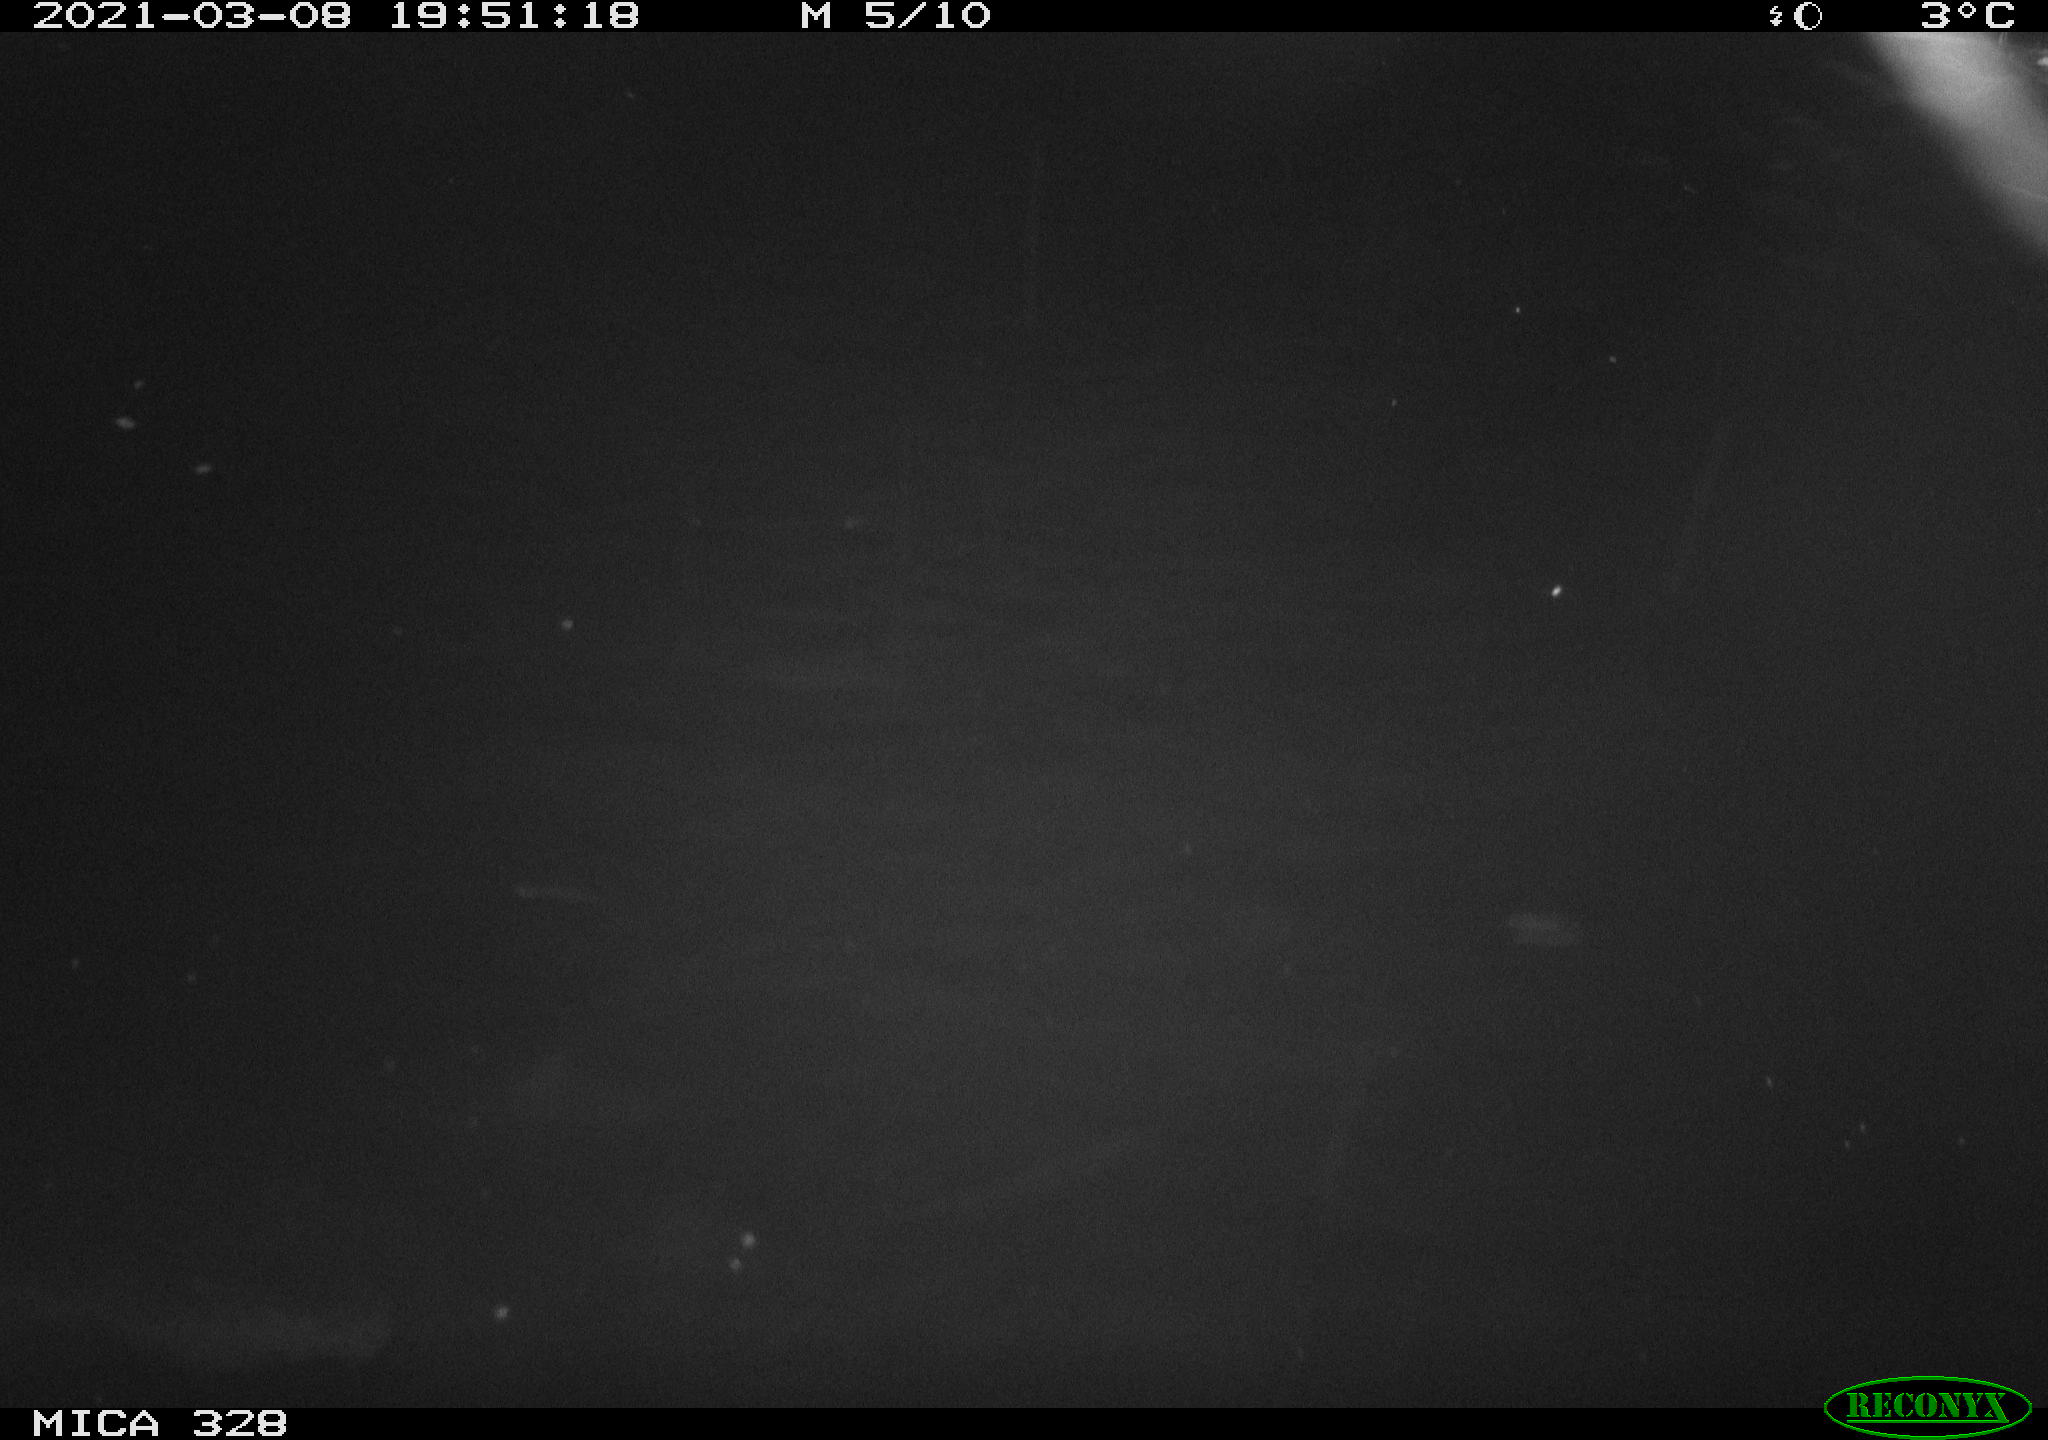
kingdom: Animalia
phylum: Chordata
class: Mammalia
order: Rodentia
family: Cricetidae
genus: Ondatra
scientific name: Ondatra zibethicus
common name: Muskrat
